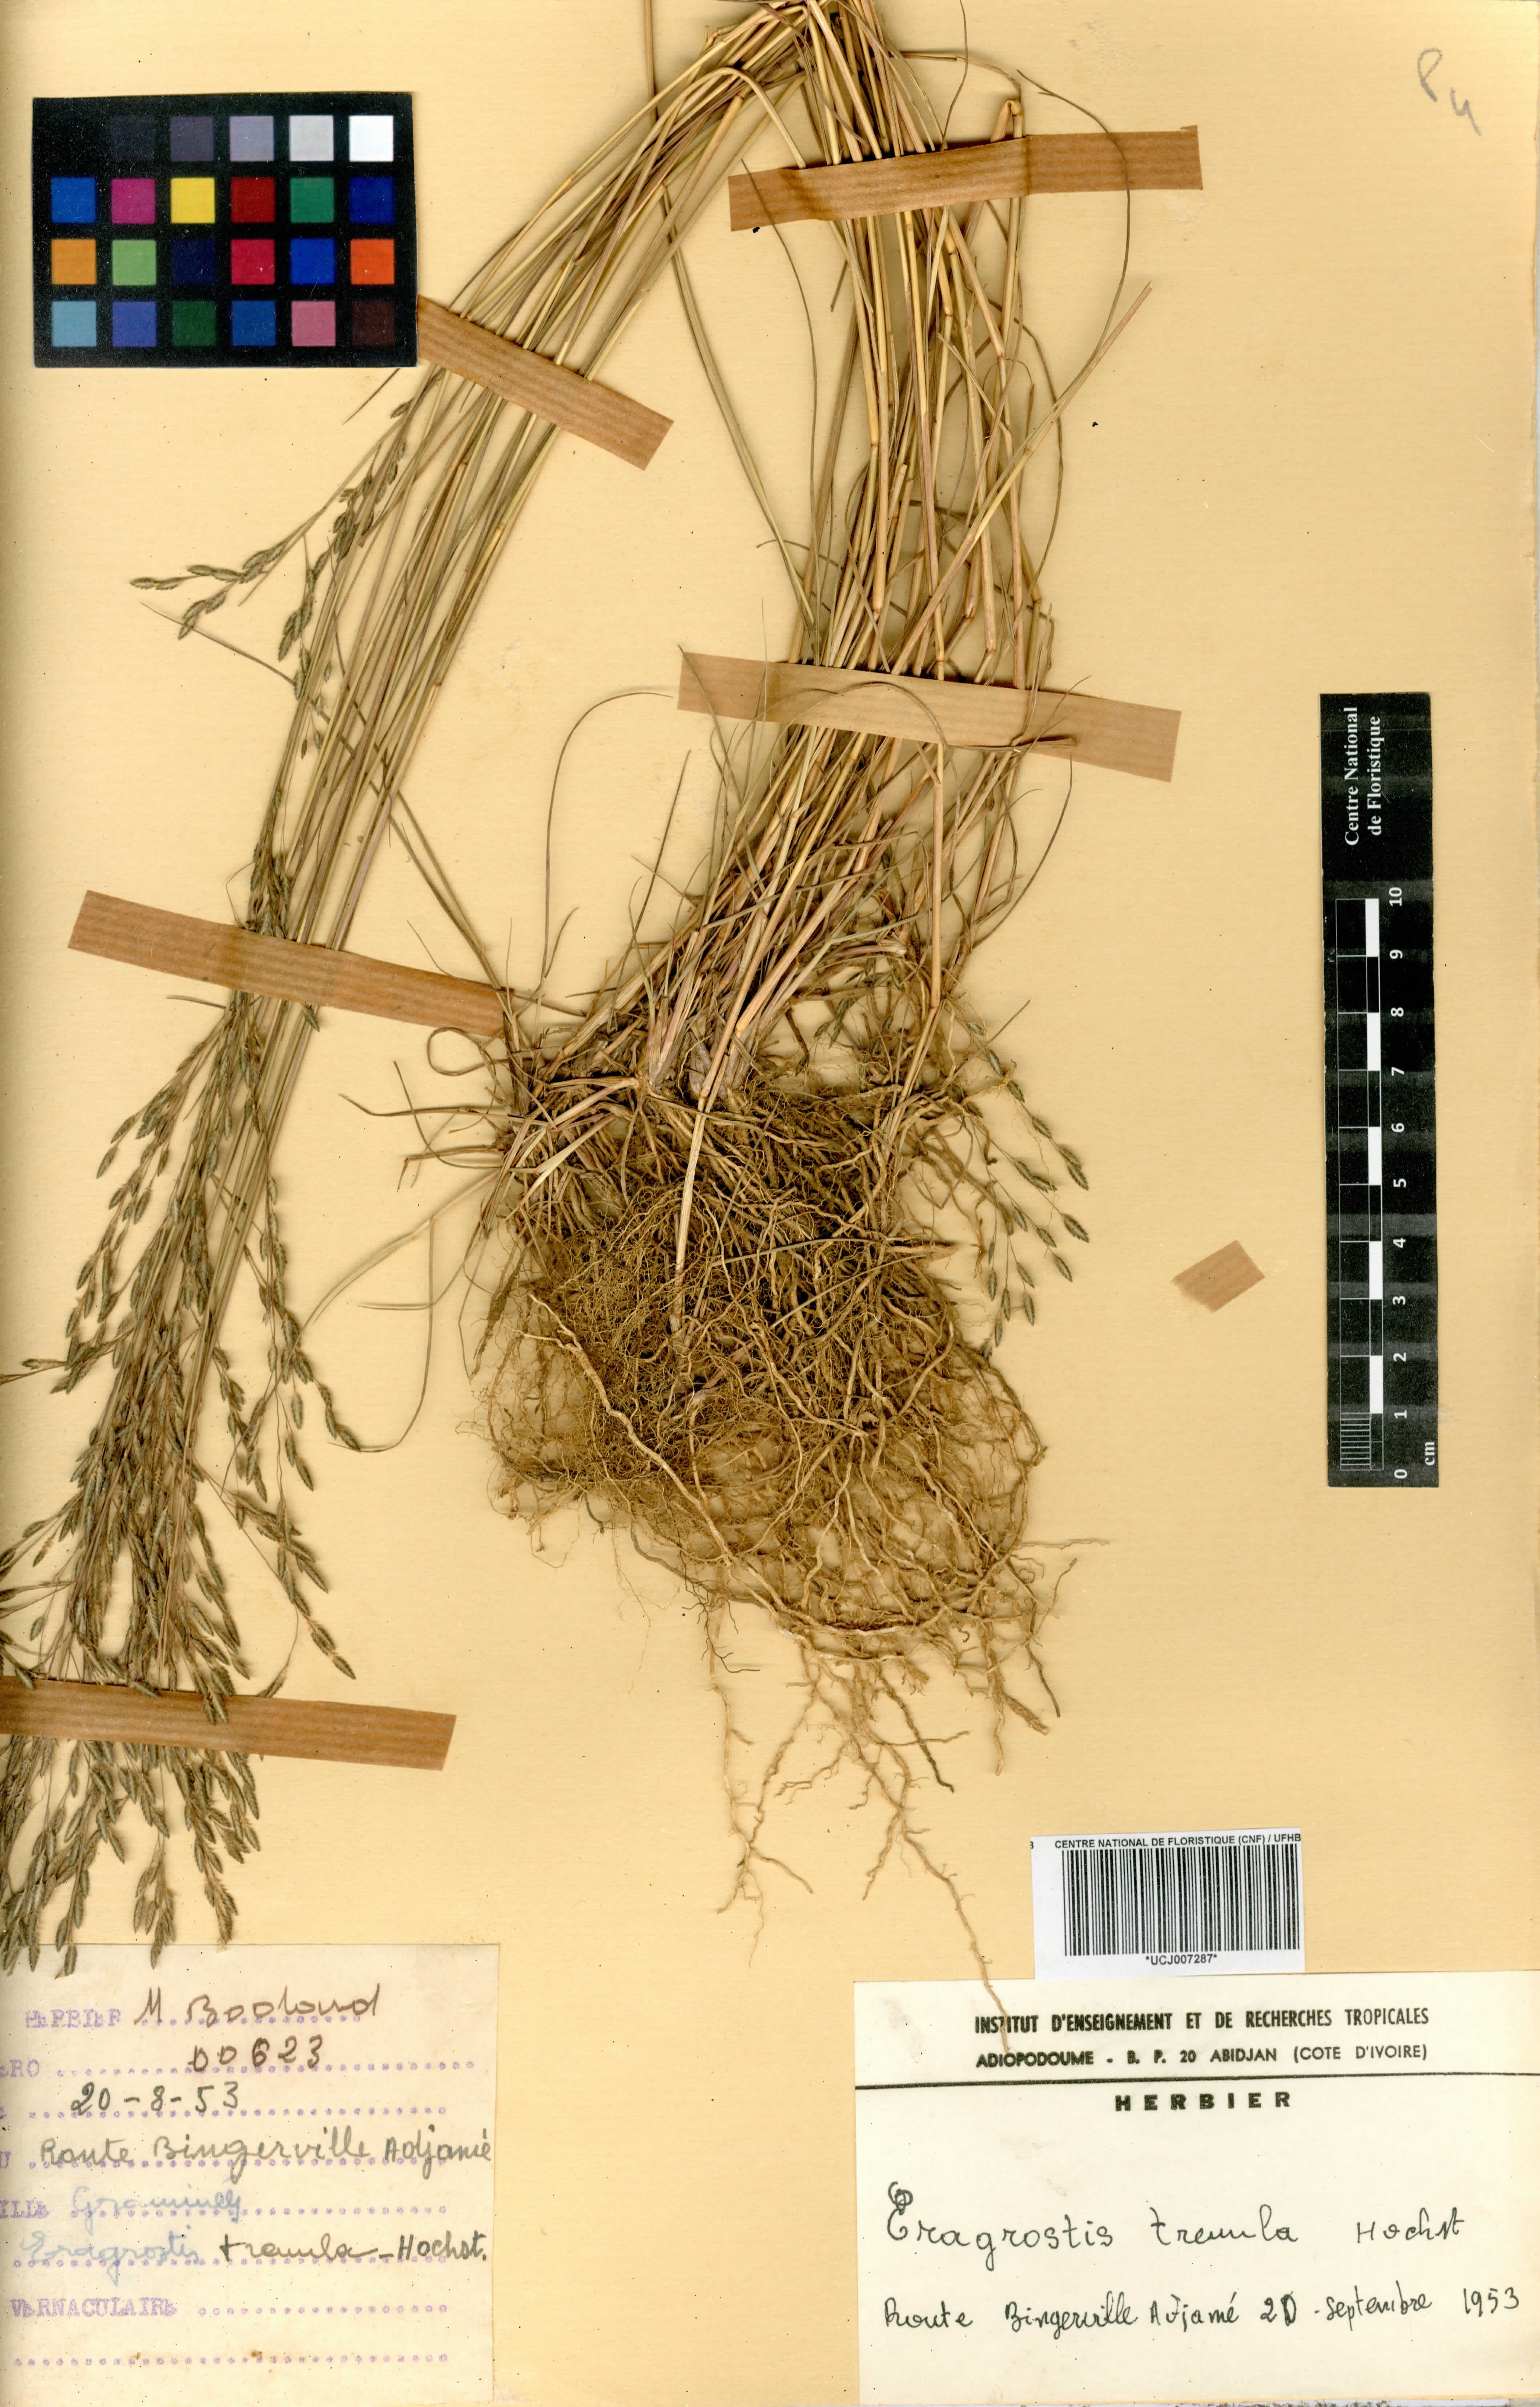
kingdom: Plantae
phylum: Tracheophyta
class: Liliopsida
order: Poales
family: Poaceae
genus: Eragrostis
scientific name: Eragrostis tremula
